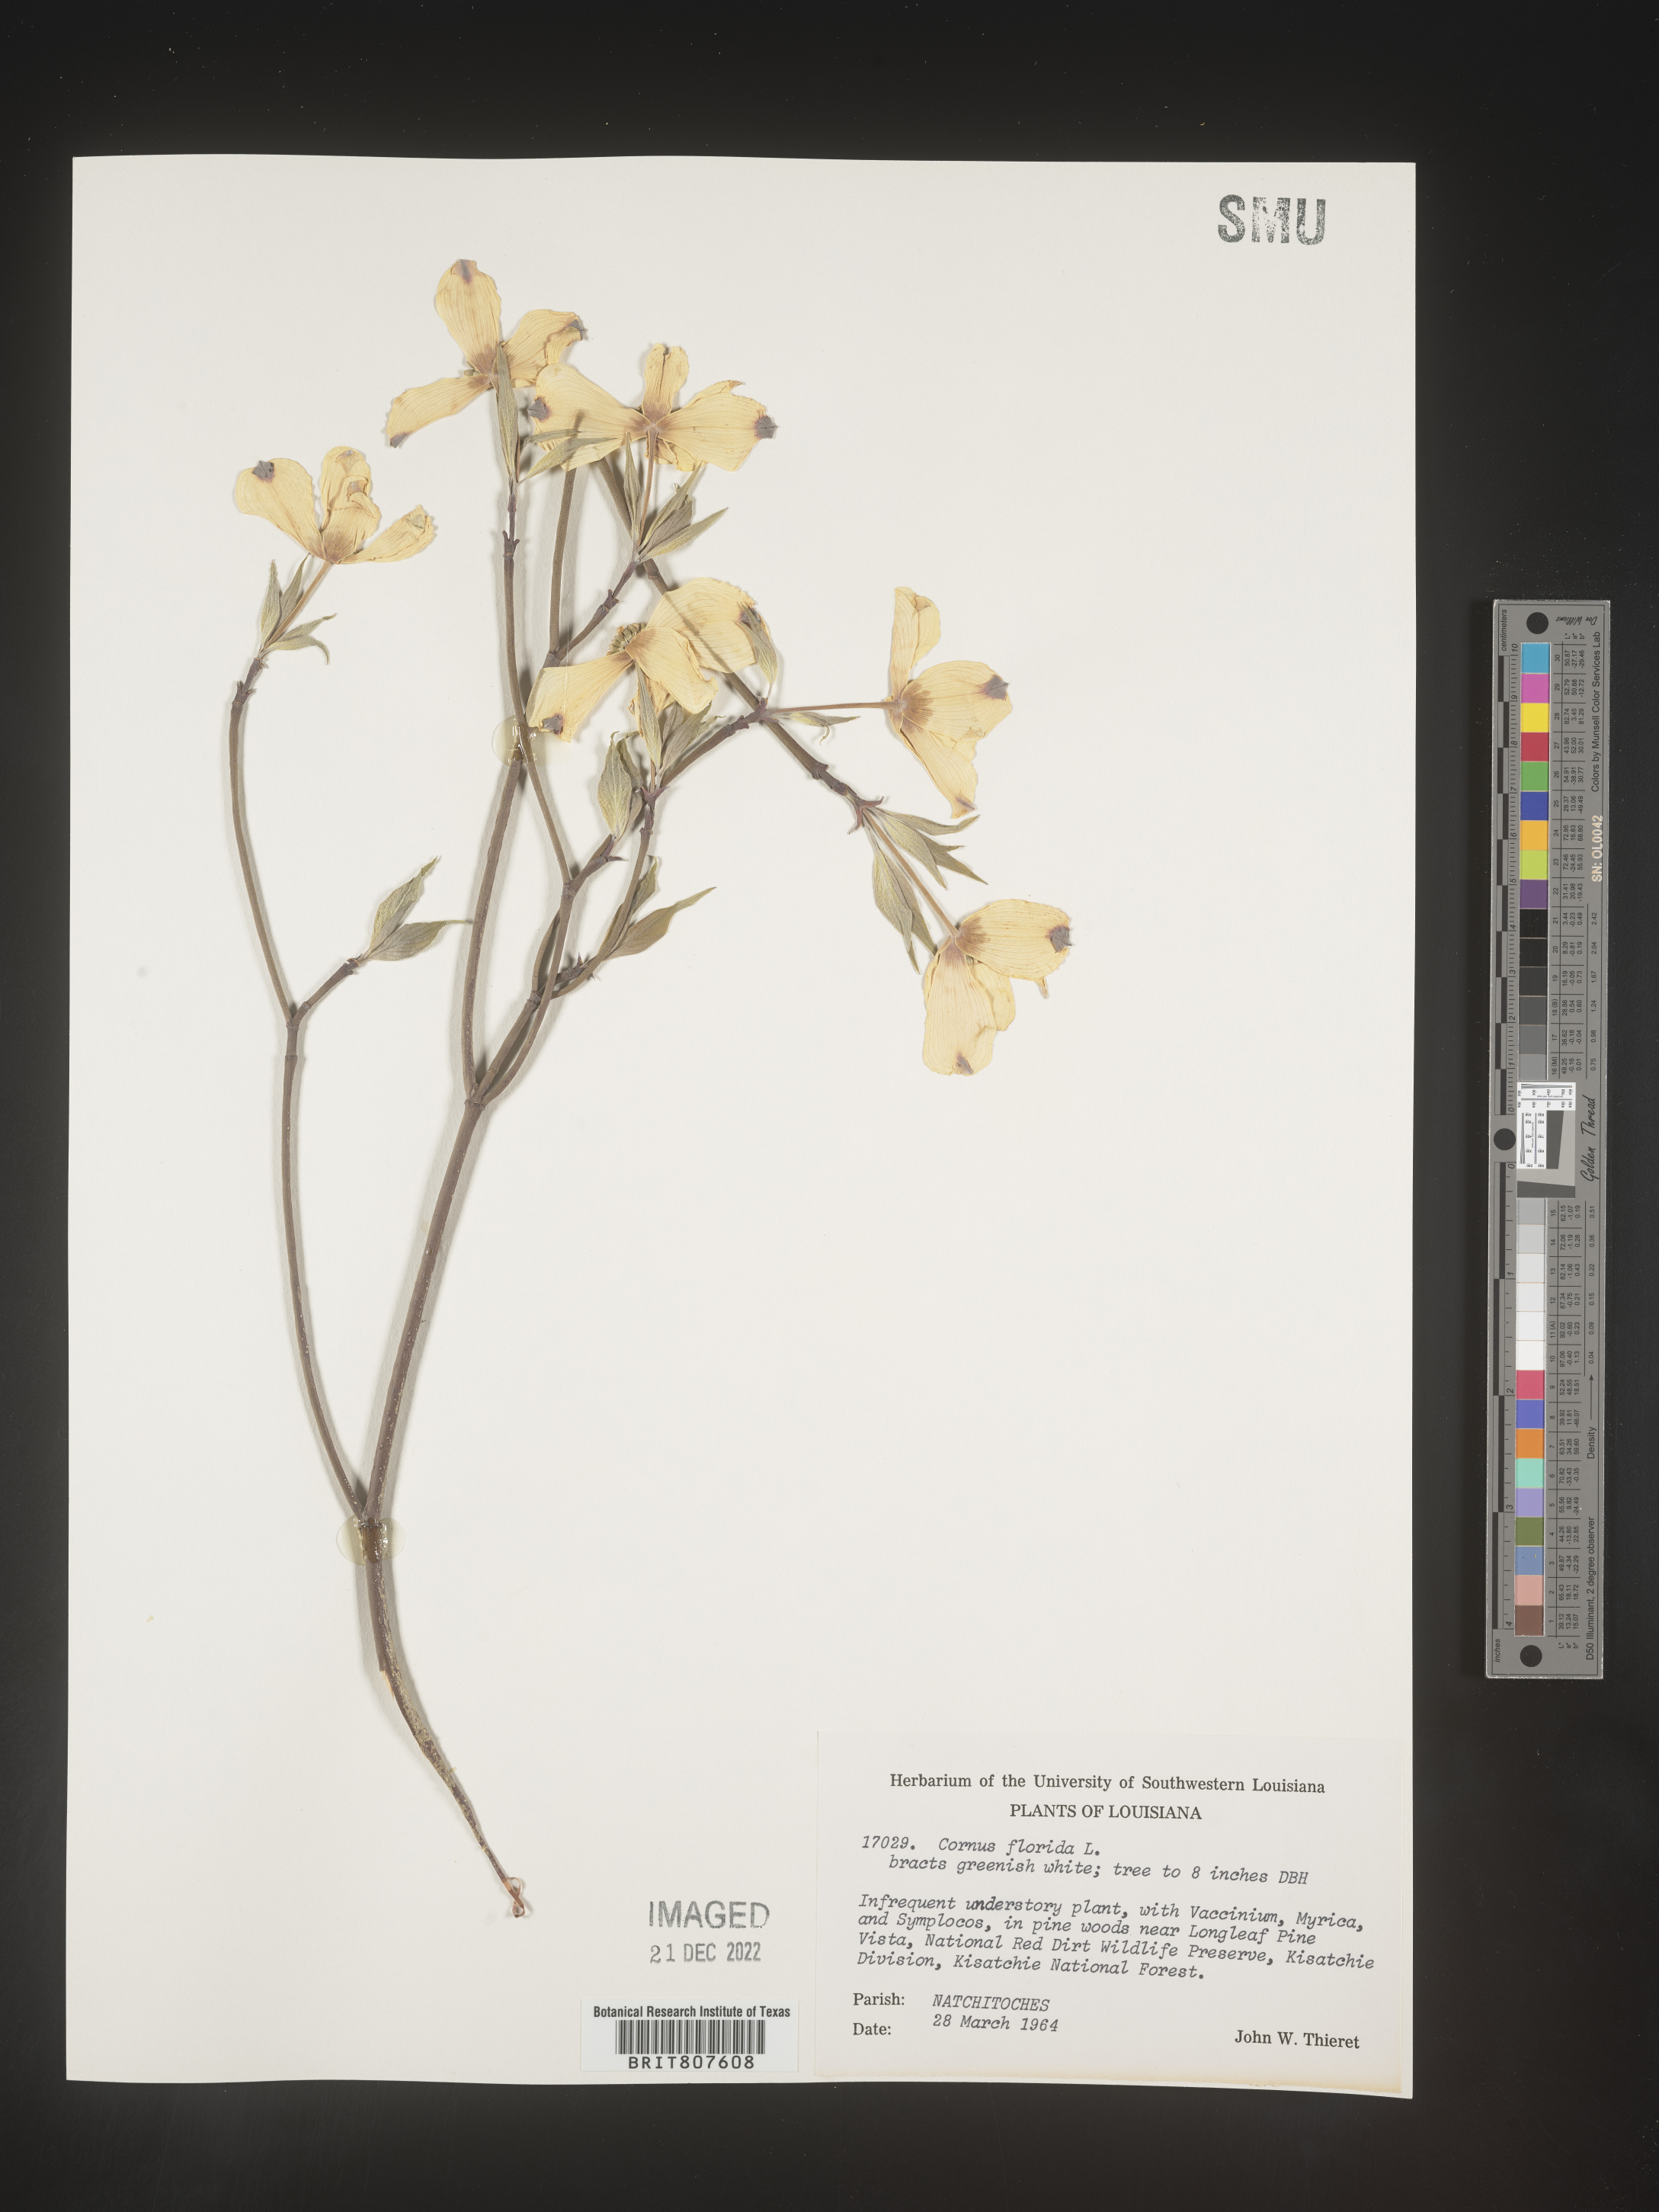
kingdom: Plantae
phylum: Tracheophyta
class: Magnoliopsida
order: Cornales
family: Cornaceae
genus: Cornus
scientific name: Cornus florida
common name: Flowering dogwood
